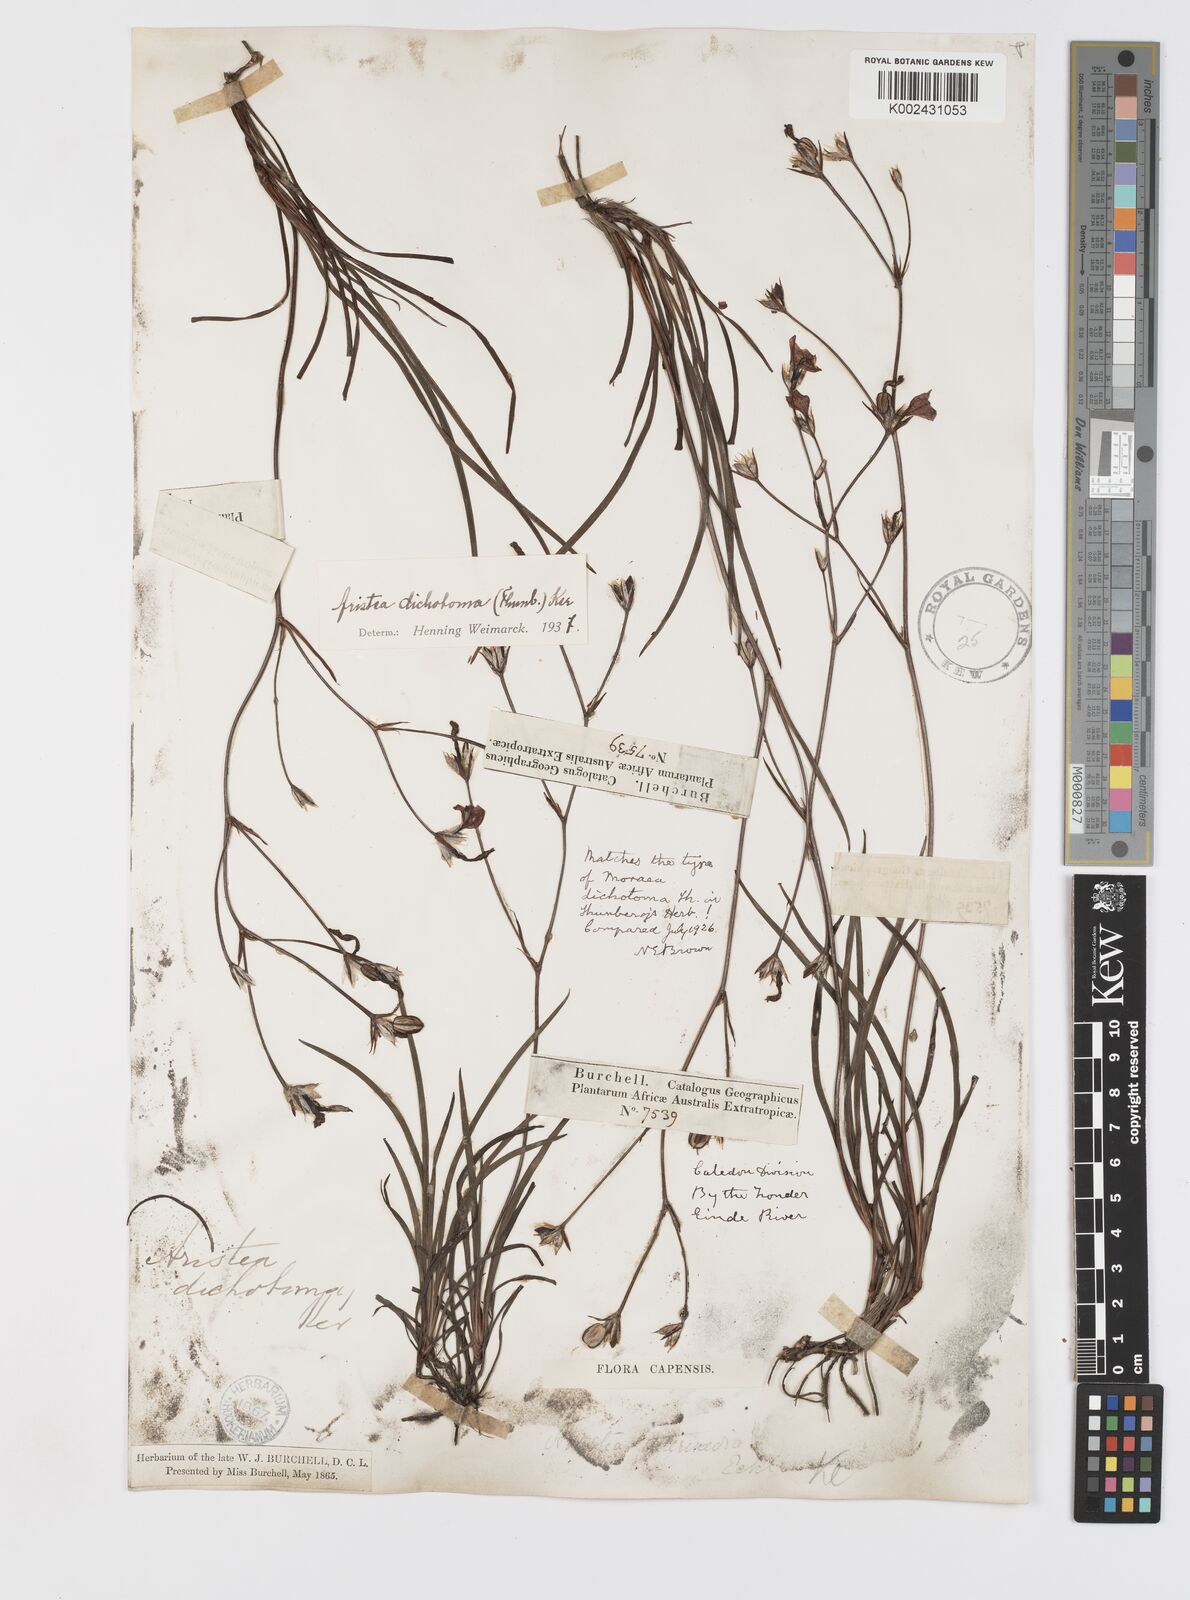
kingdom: Plantae
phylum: Tracheophyta
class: Liliopsida
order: Asparagales
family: Iridaceae
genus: Aristea
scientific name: Aristea dichotoma
